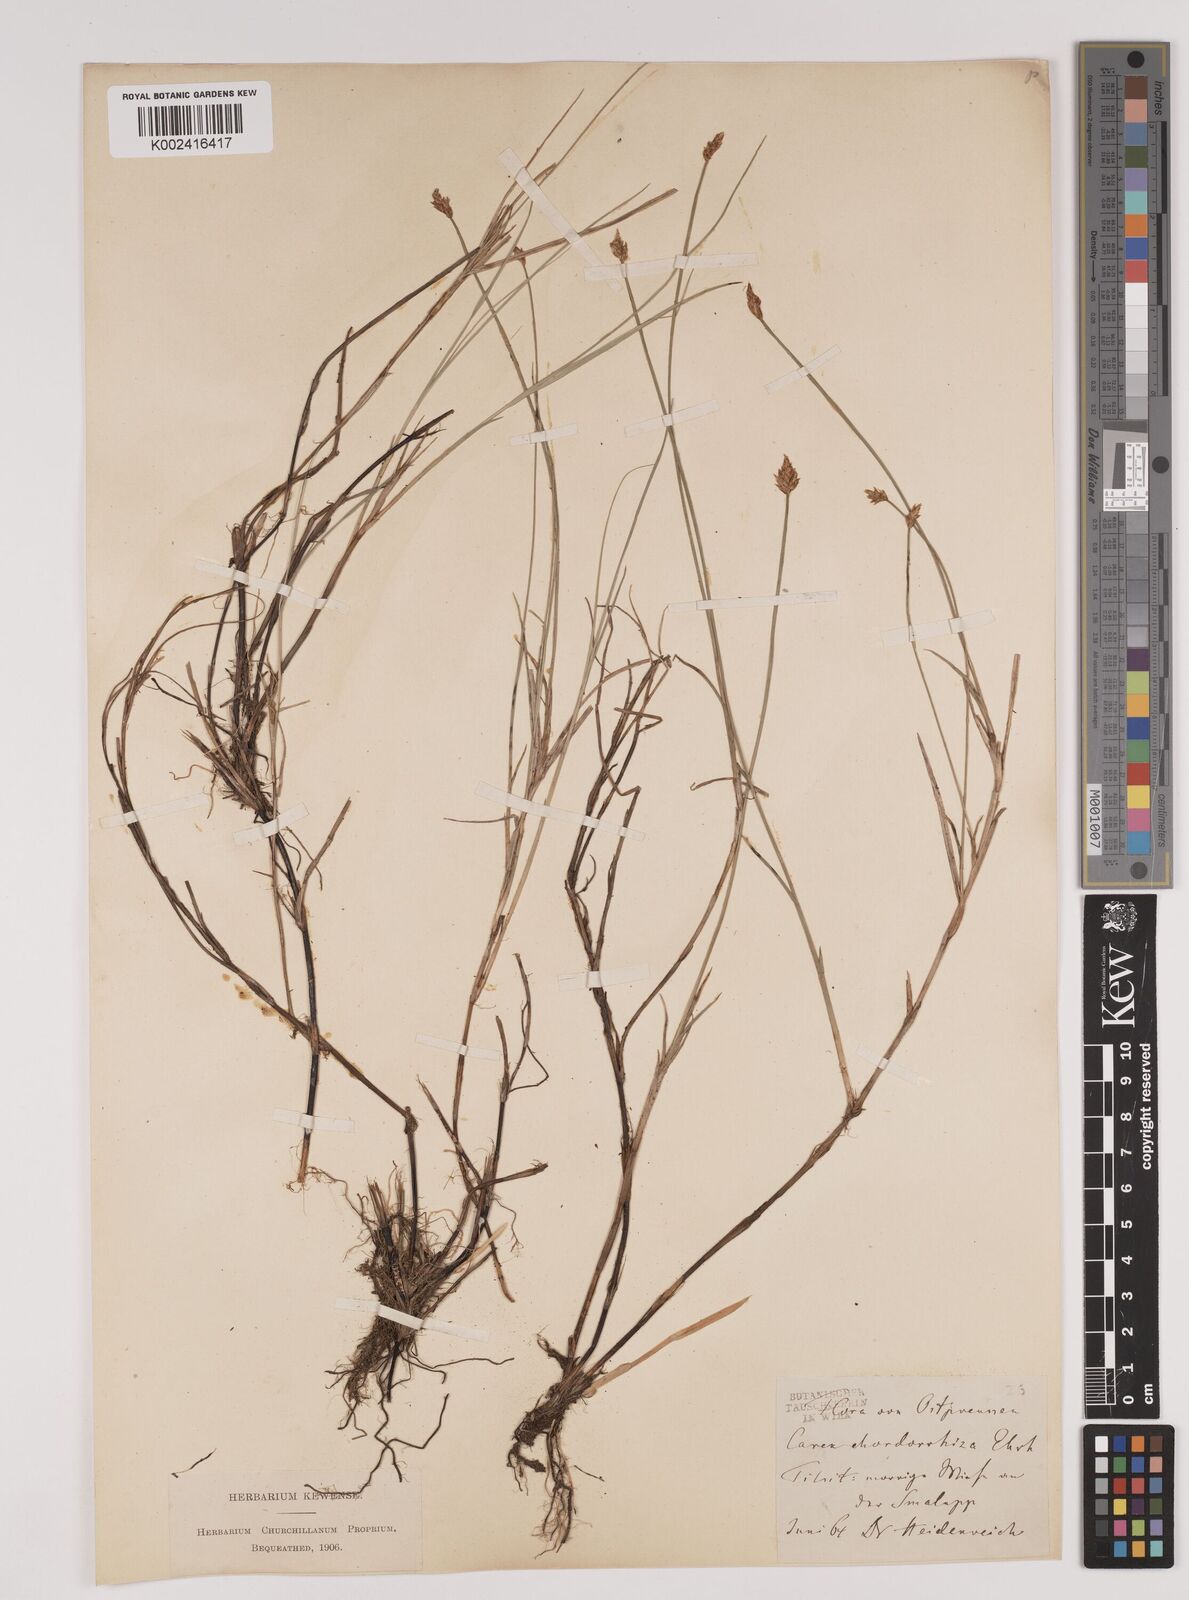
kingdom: Plantae
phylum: Tracheophyta
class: Liliopsida
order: Poales
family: Cyperaceae
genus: Carex
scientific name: Carex chordorrhiza
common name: String sedge
